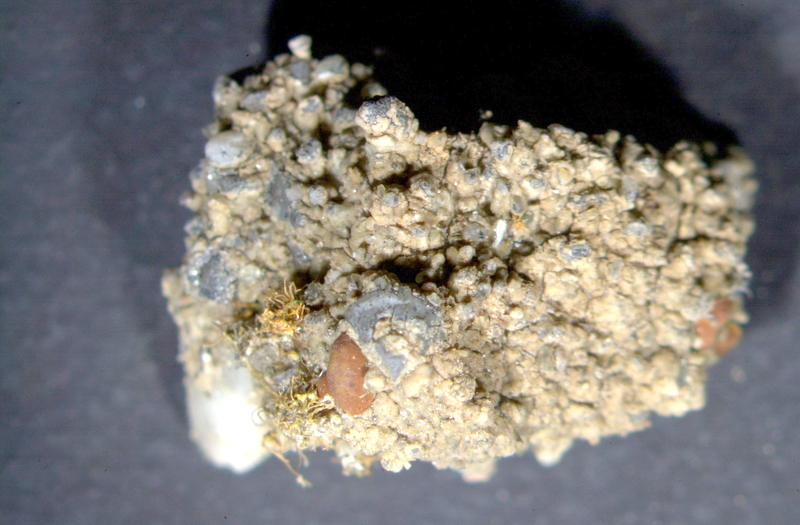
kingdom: Fungi
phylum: Ascomycota
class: Lecanoromycetes
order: Lecanorales
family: Ramalinaceae
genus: Ramalina
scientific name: Ramalina capensis
